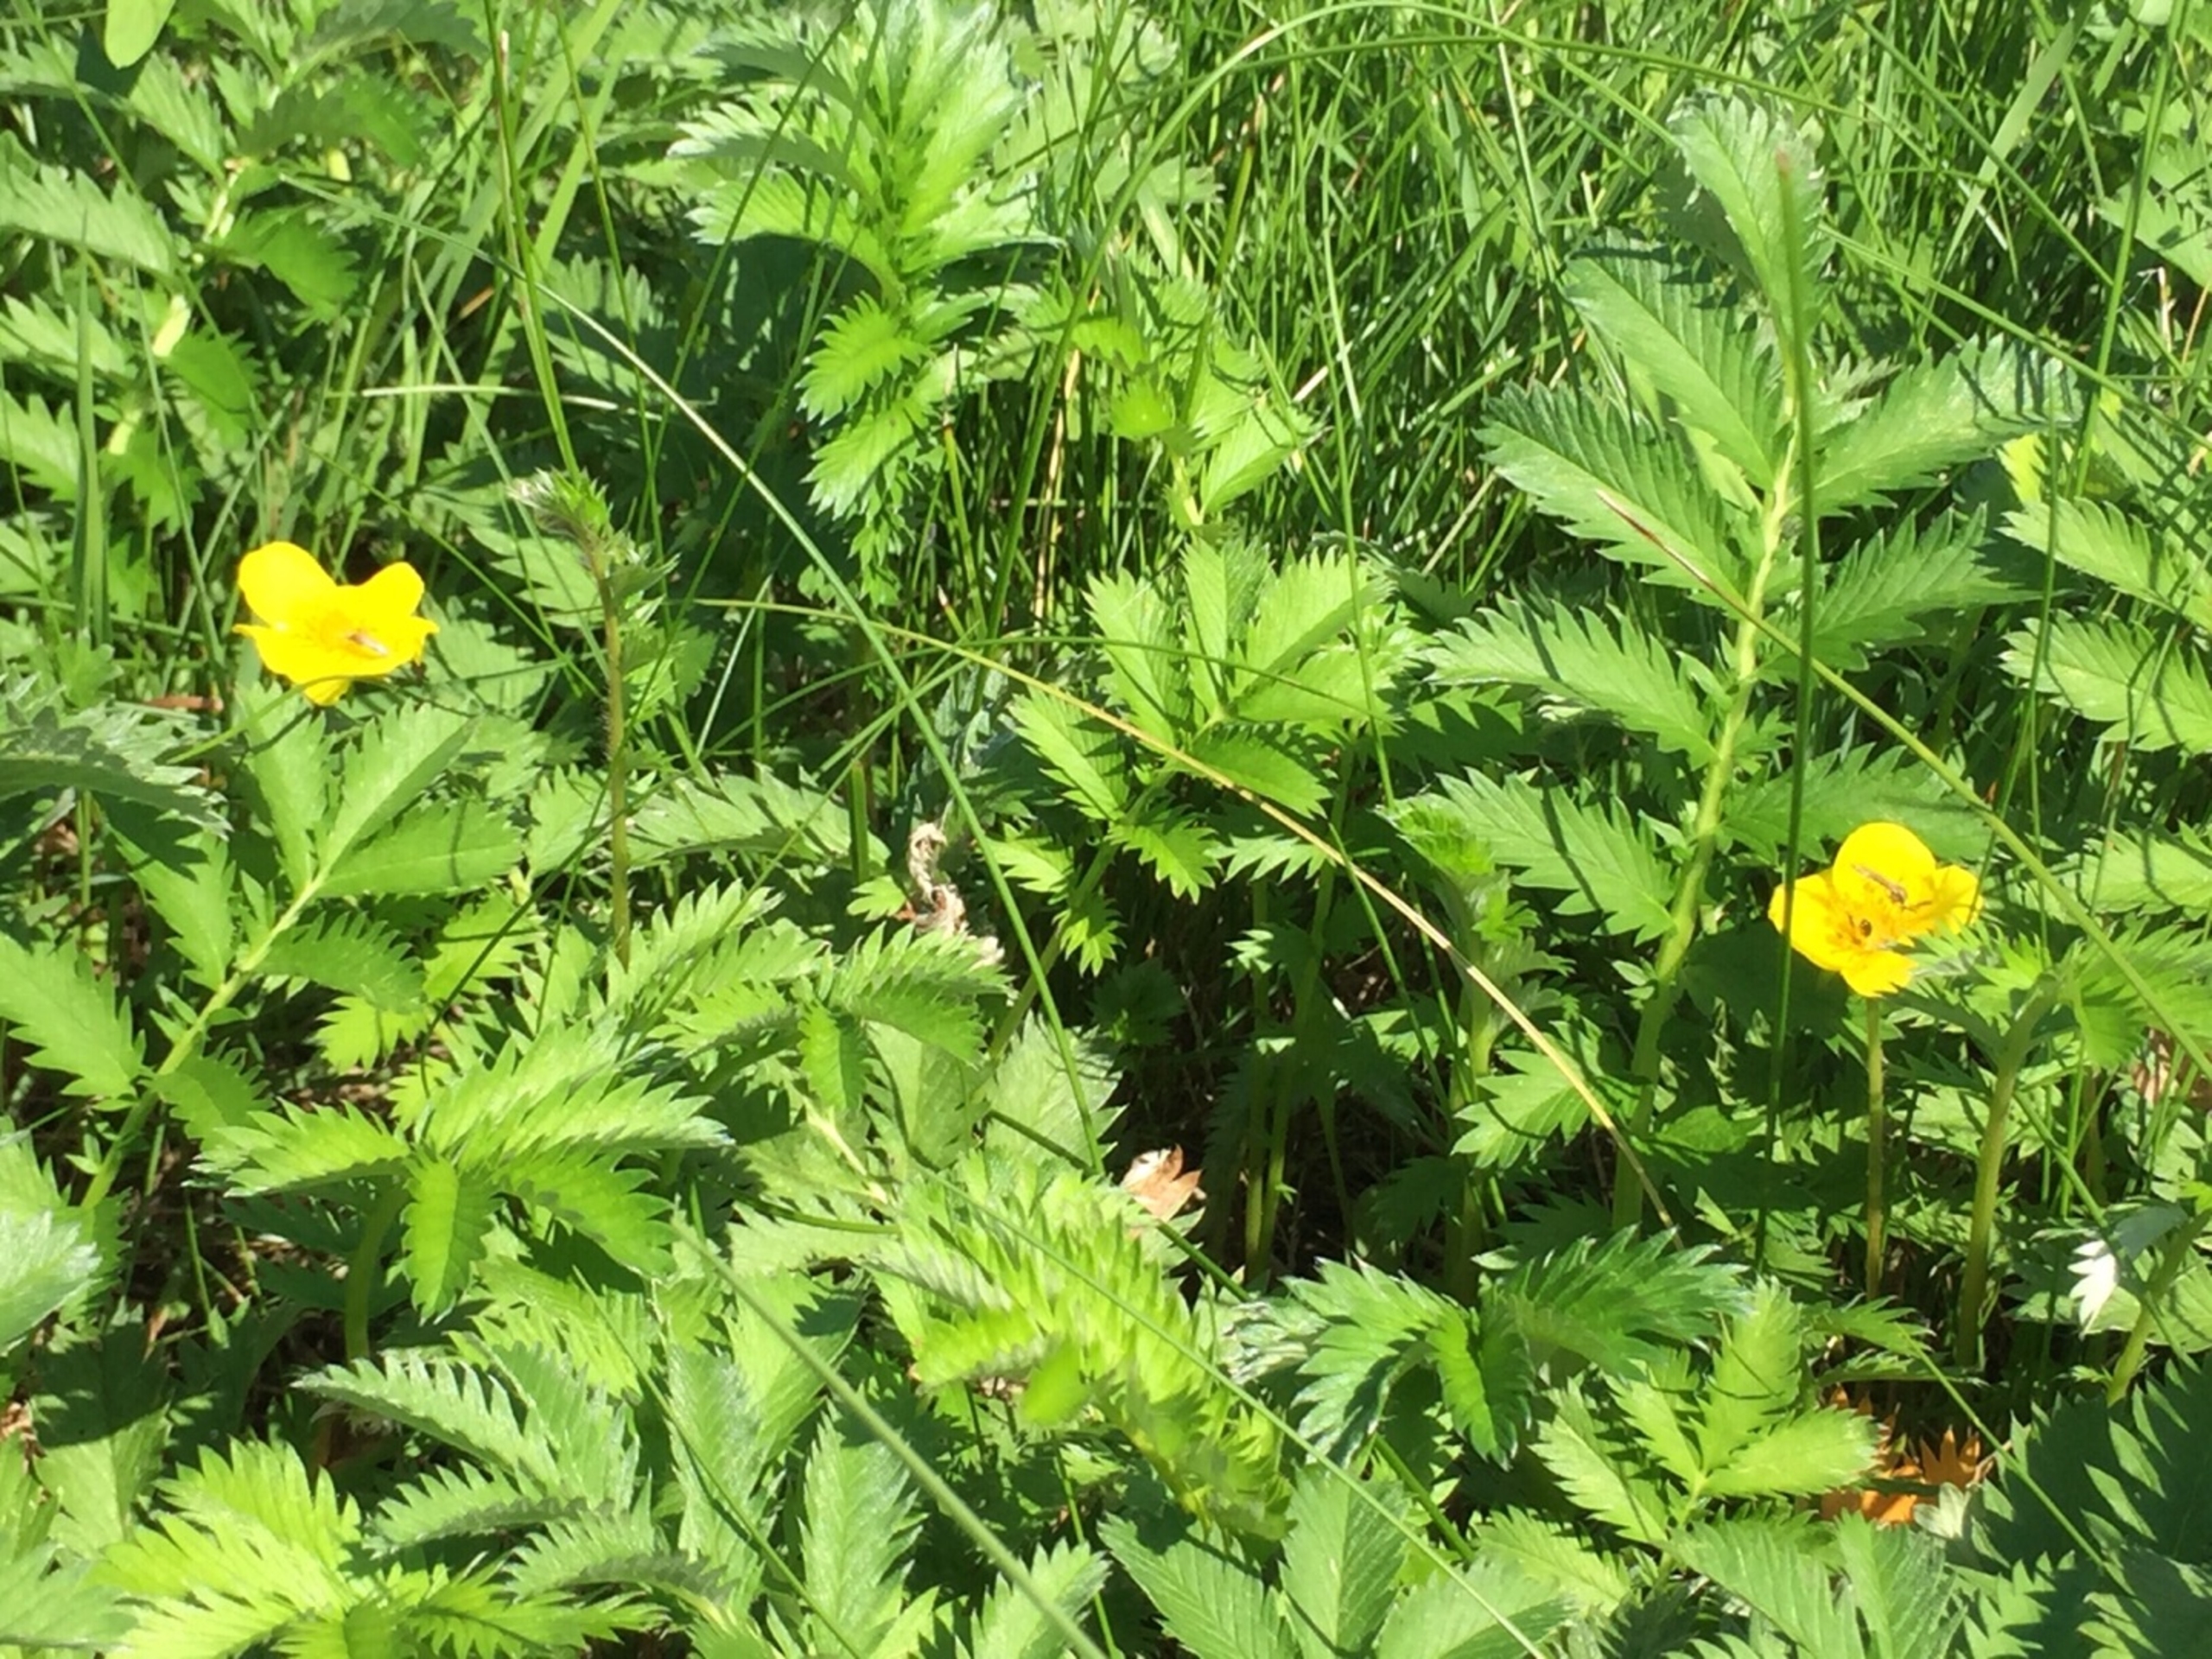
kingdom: Plantae
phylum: Tracheophyta
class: Magnoliopsida
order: Rosales
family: Rosaceae
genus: Argentina
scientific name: Argentina anserina
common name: Gåsepotentil
